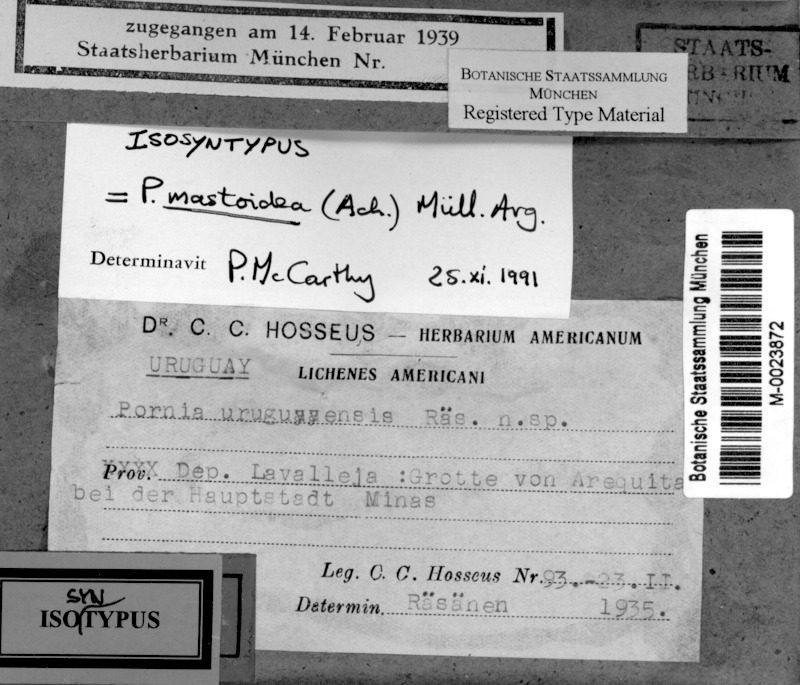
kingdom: Fungi
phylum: Ascomycota
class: Lecanoromycetes
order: Ostropales
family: Porinaceae
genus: Clathroporina
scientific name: Clathroporina mastoidea
